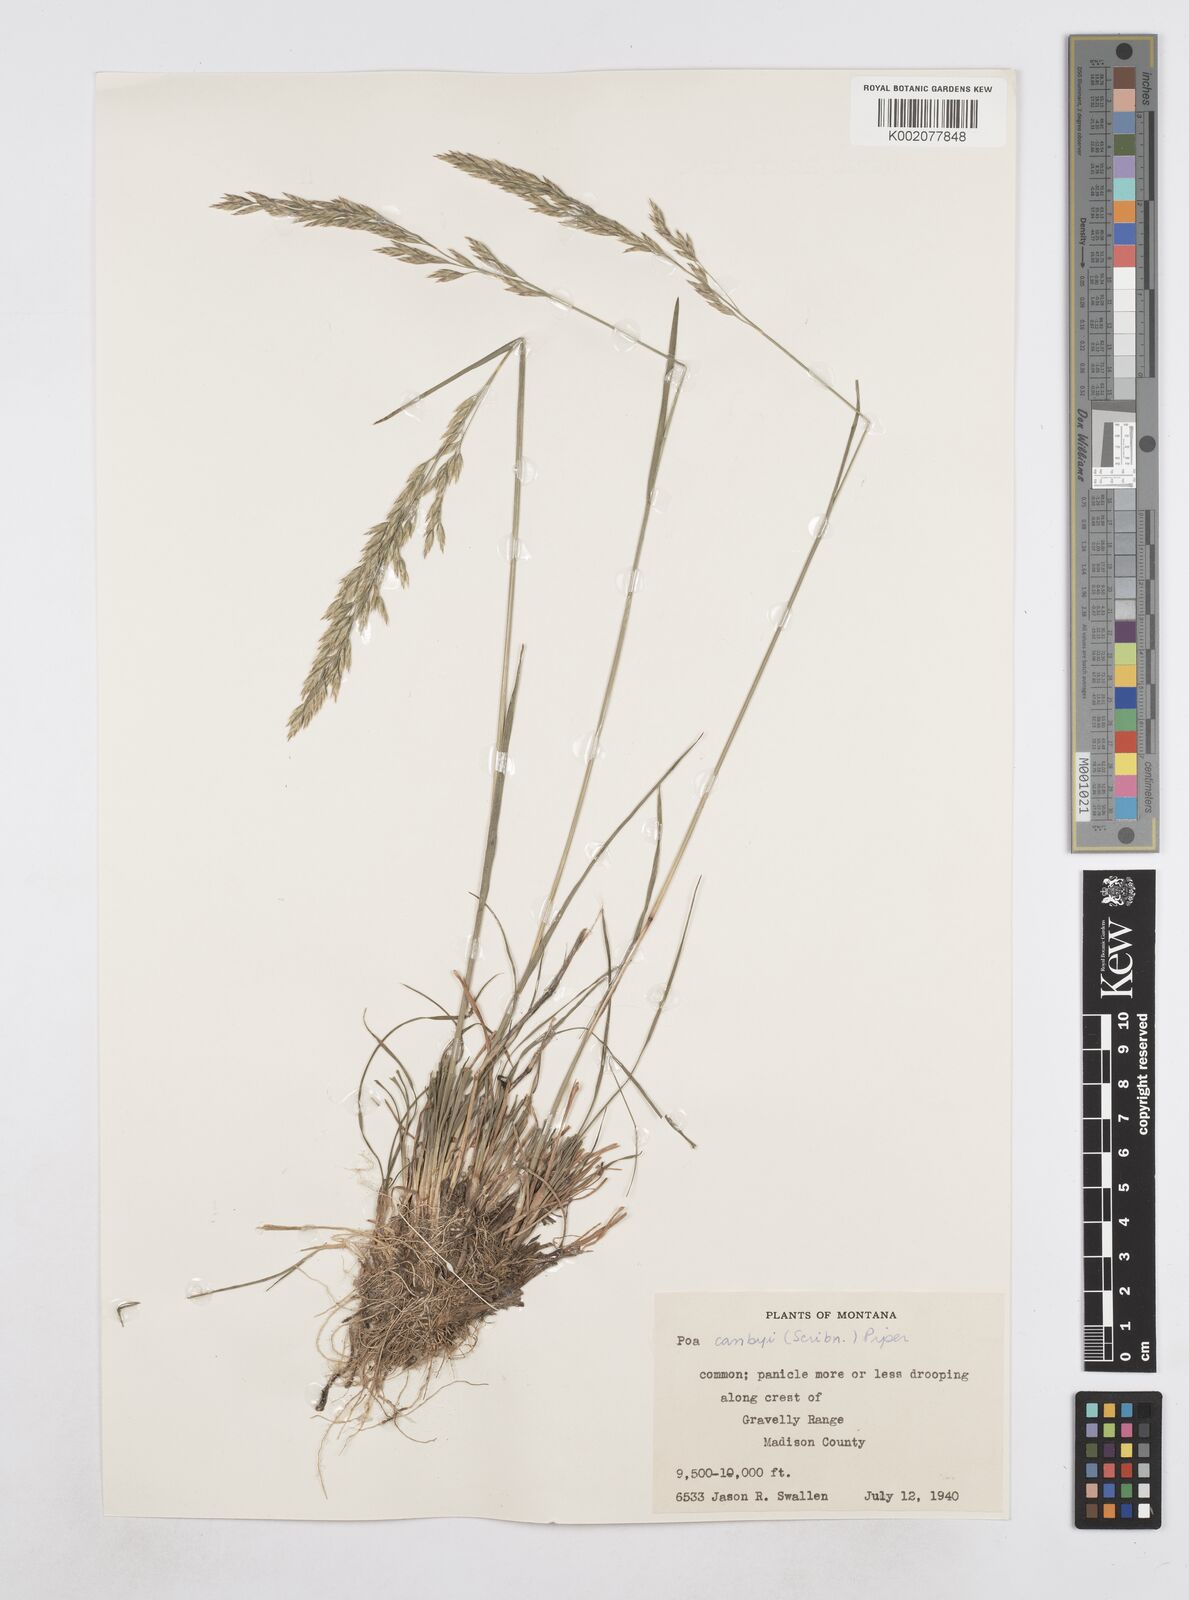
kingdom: Plantae
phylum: Tracheophyta
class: Liliopsida
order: Poales
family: Poaceae
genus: Poa
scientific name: Poa secunda
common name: Sandberg bluegrass
